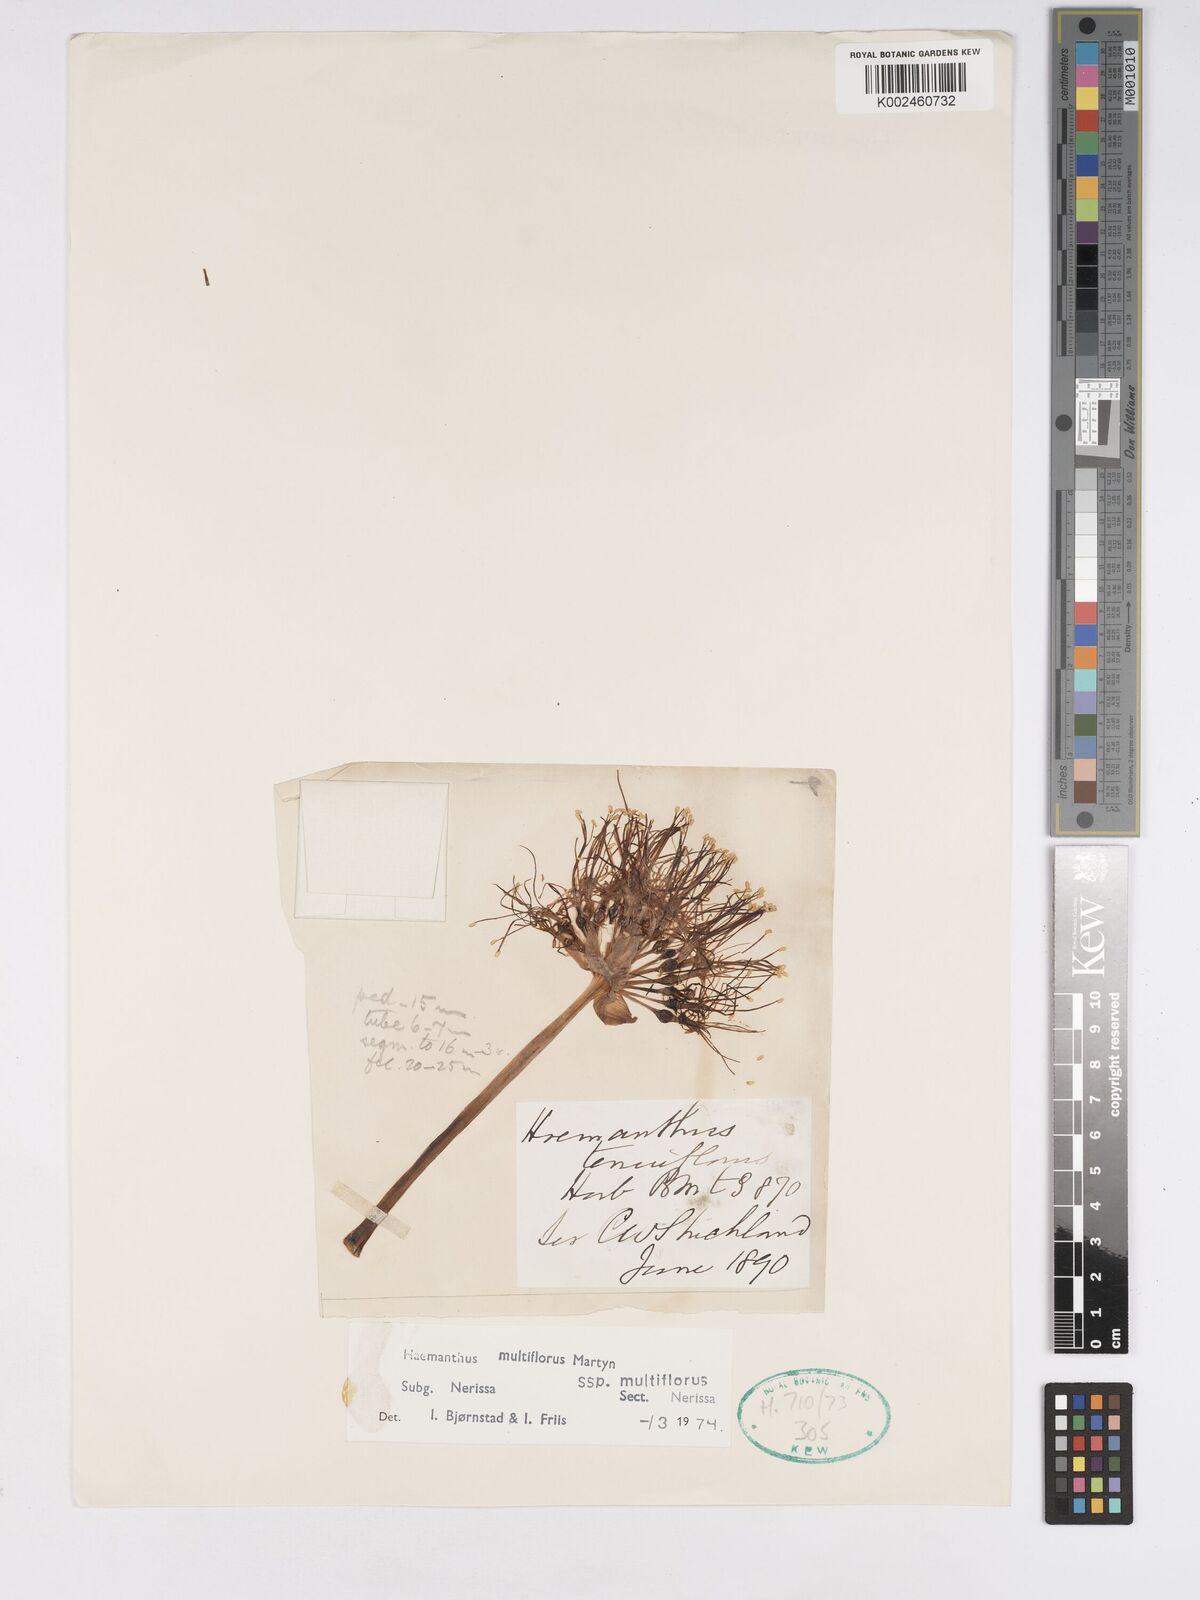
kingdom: Plantae
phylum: Tracheophyta
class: Liliopsida
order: Asparagales
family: Amaryllidaceae
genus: Scadoxus
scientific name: Scadoxus multiflorus
